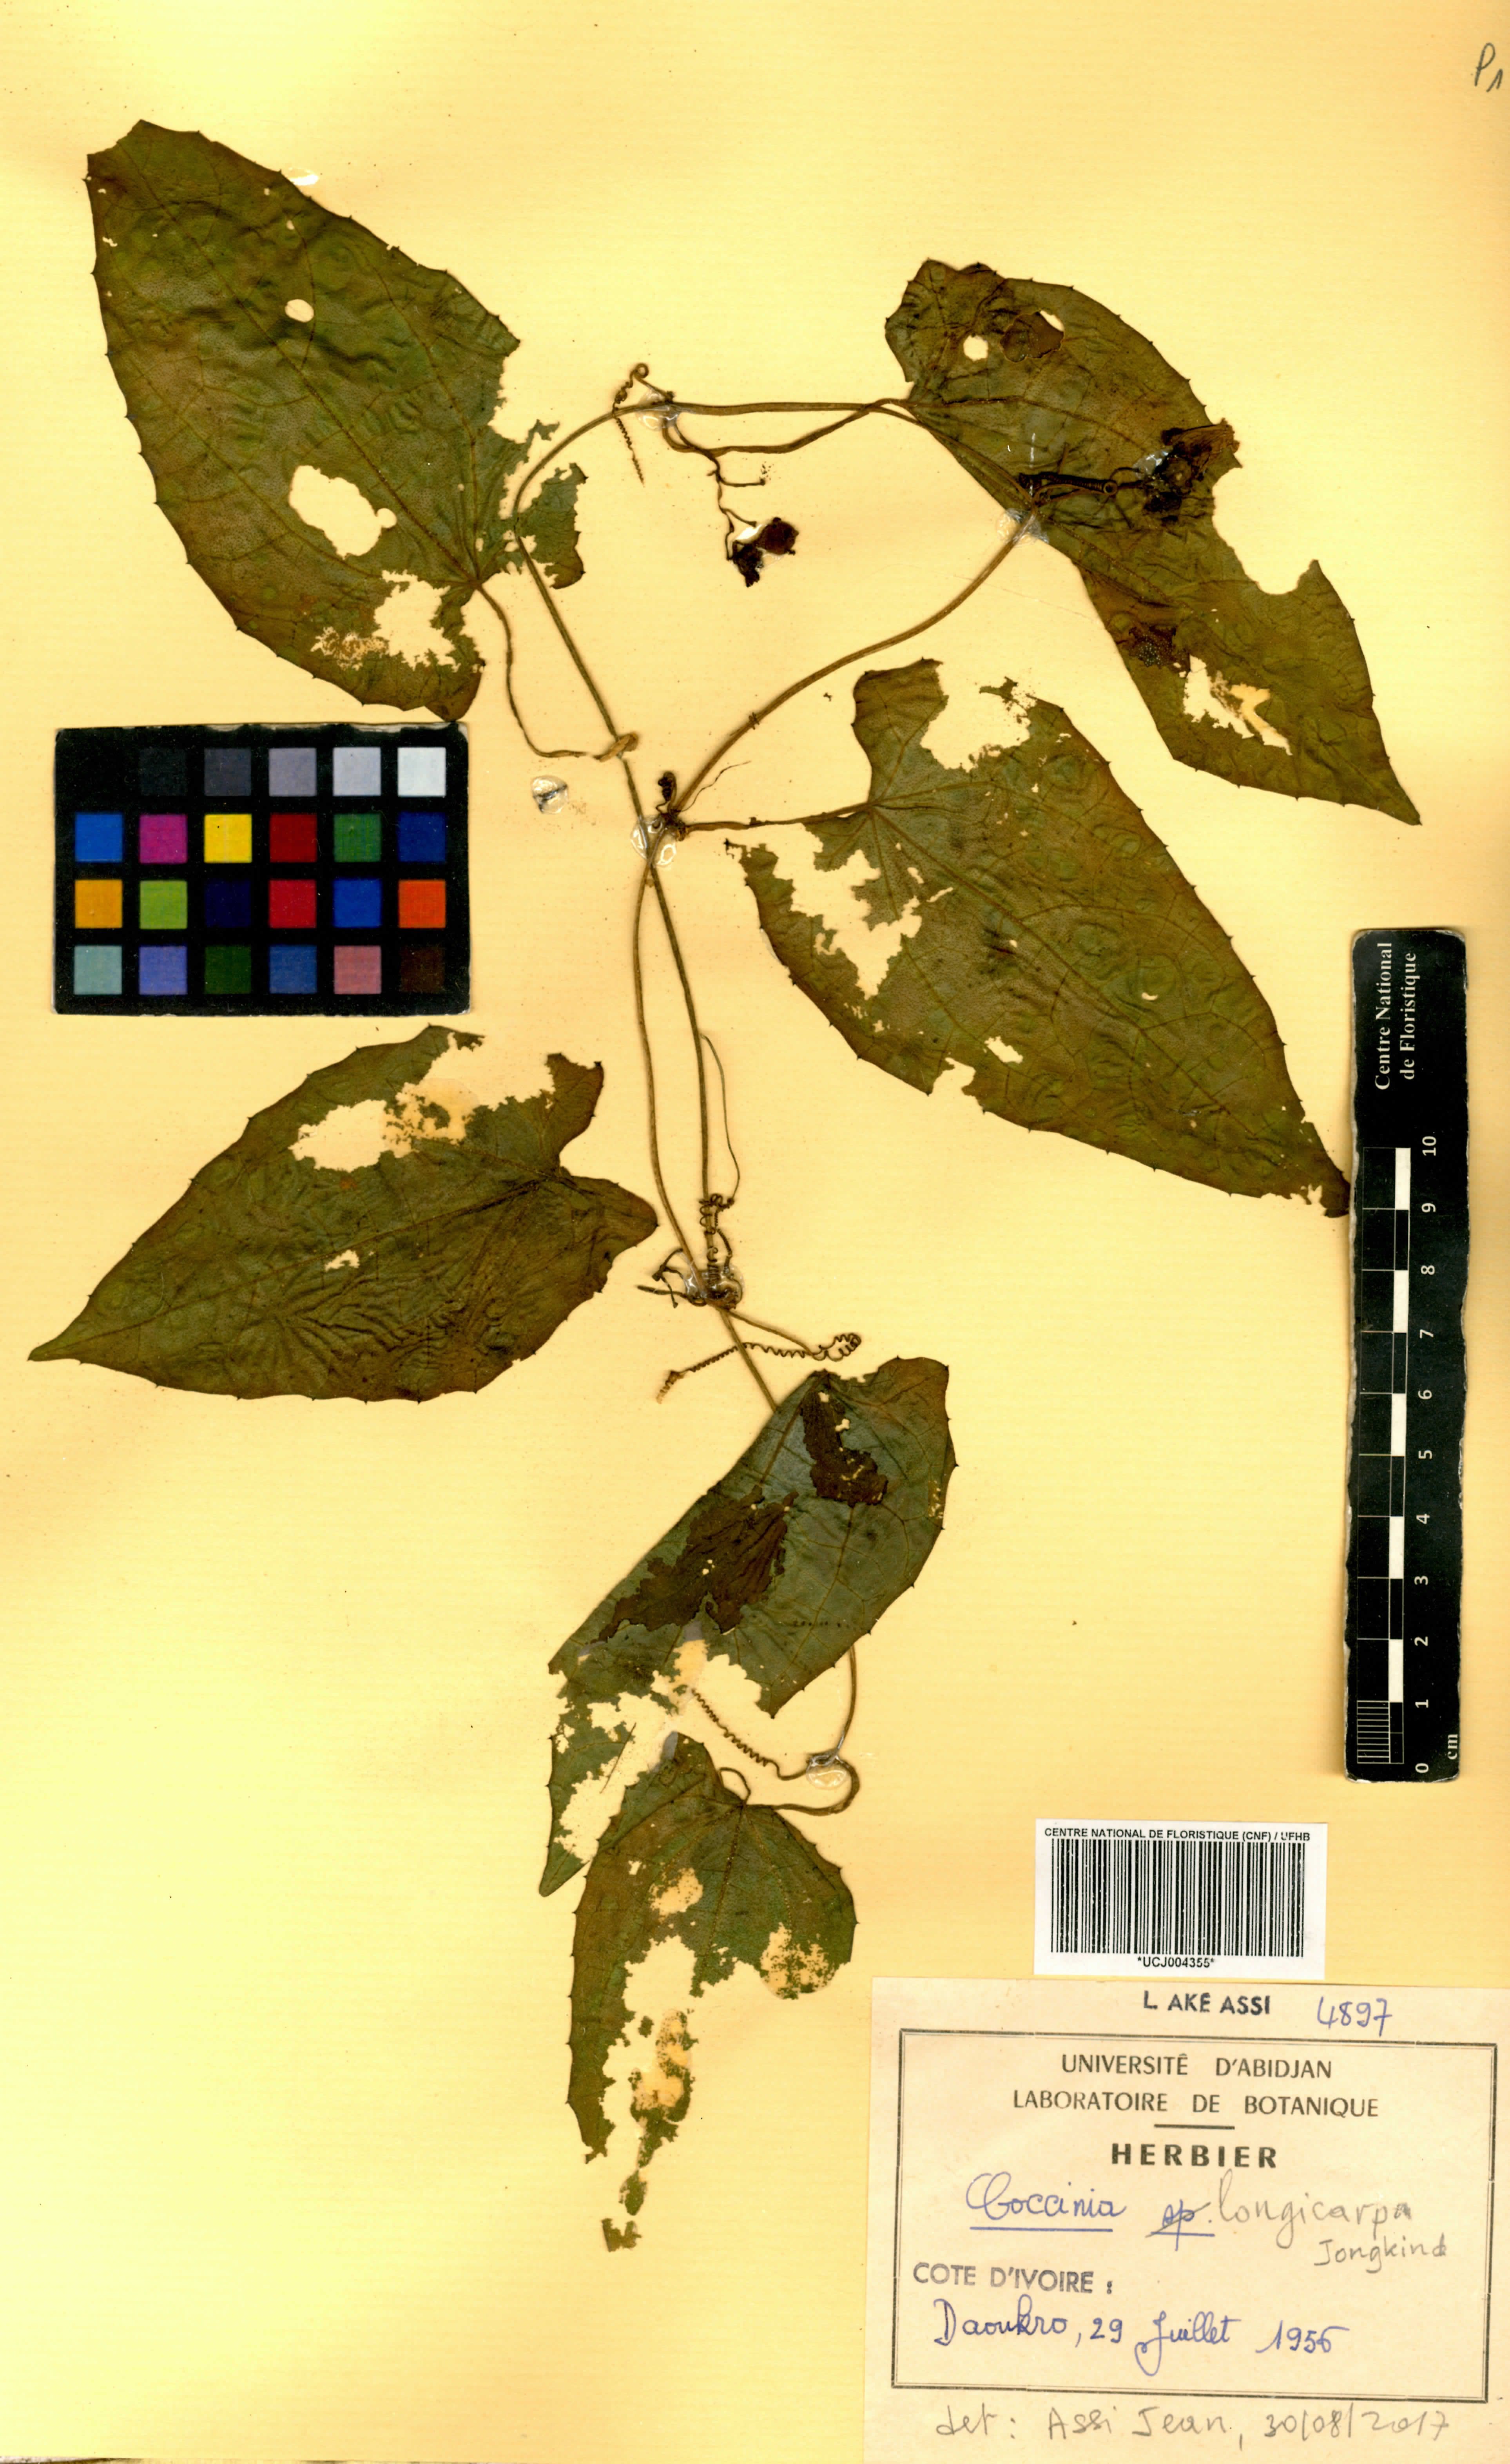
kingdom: Plantae
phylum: Tracheophyta
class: Magnoliopsida
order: Cucurbitales
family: Cucurbitaceae
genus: Coccinia
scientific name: Coccinia longicarpa
